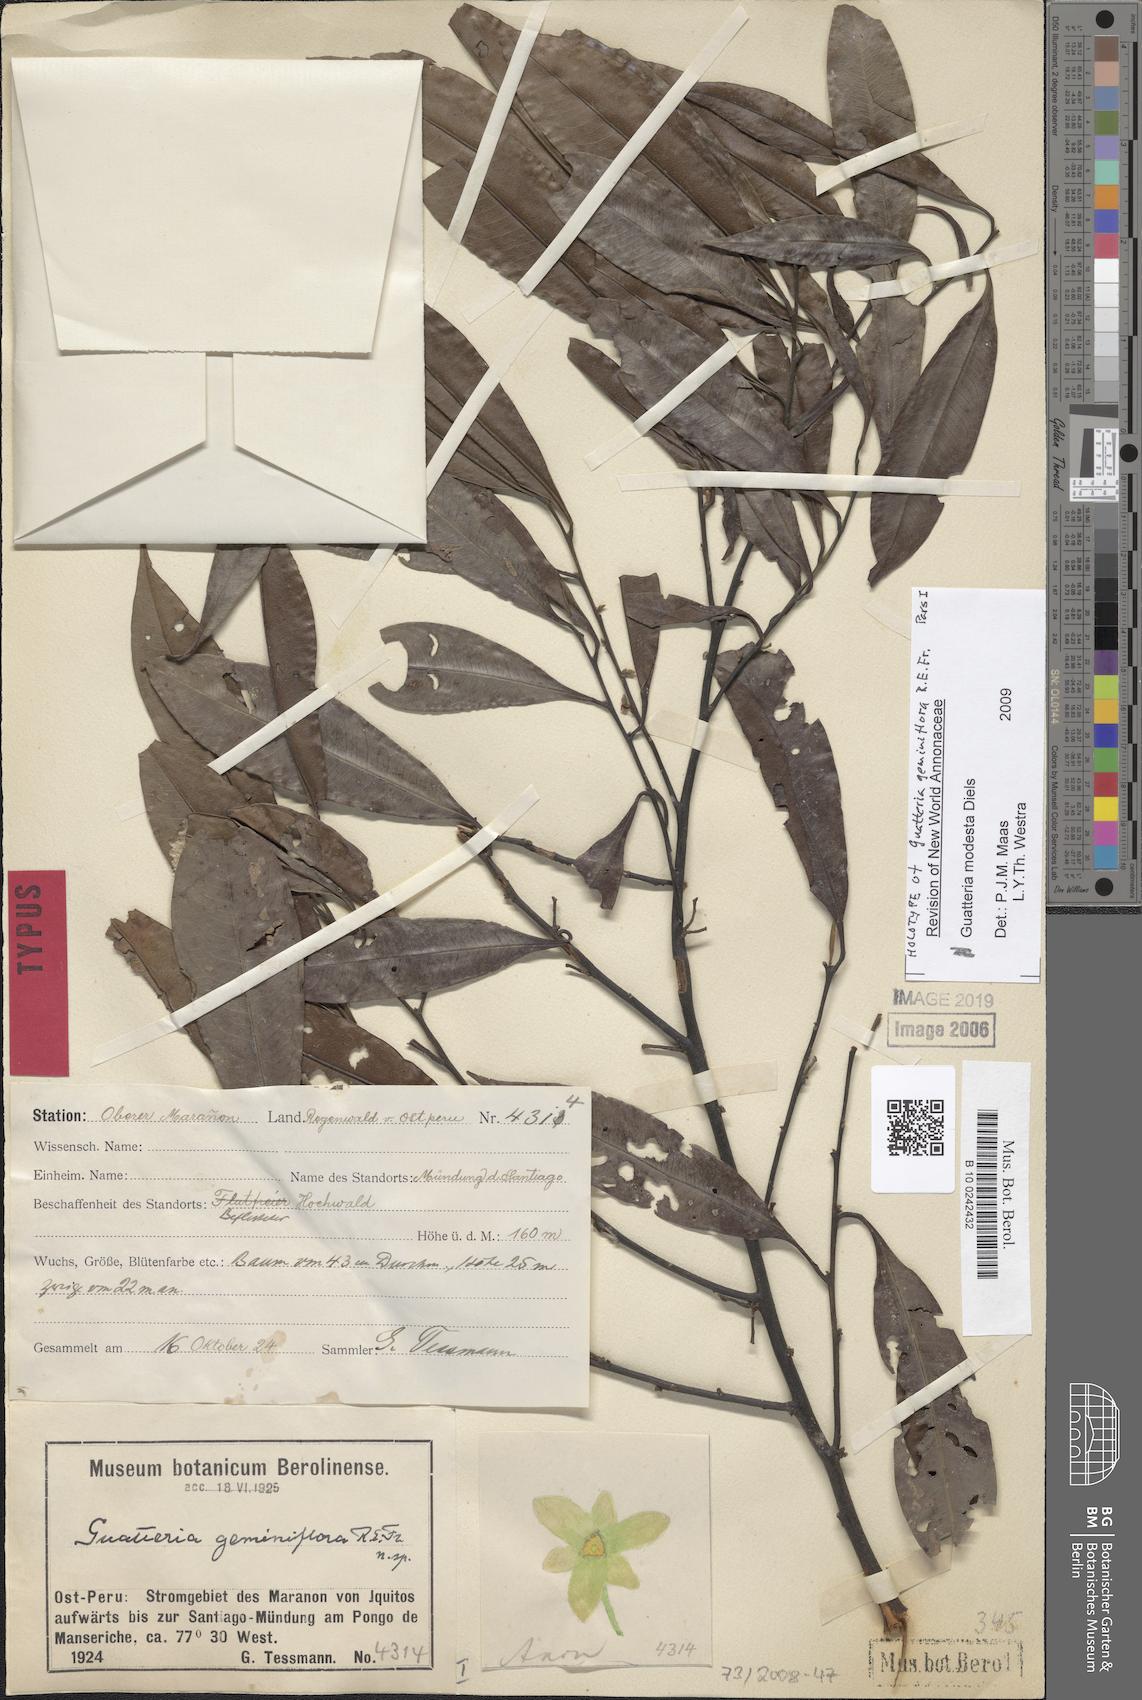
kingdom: Plantae
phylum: Tracheophyta
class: Magnoliopsida
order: Magnoliales
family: Annonaceae
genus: Guatteria
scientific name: Guatteria modesta
